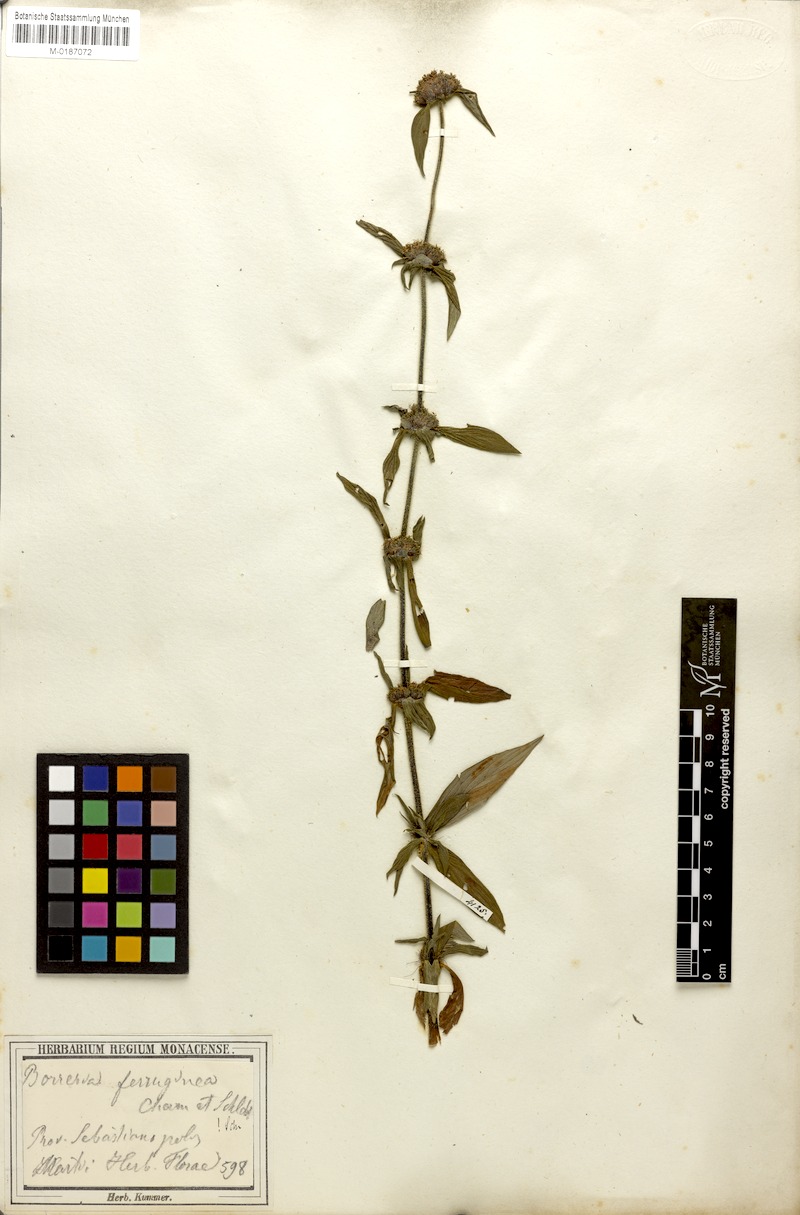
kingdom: Plantae
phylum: Tracheophyta
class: Magnoliopsida
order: Gentianales
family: Rubiaceae
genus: Spermacoce
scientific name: Spermacoce capitata
